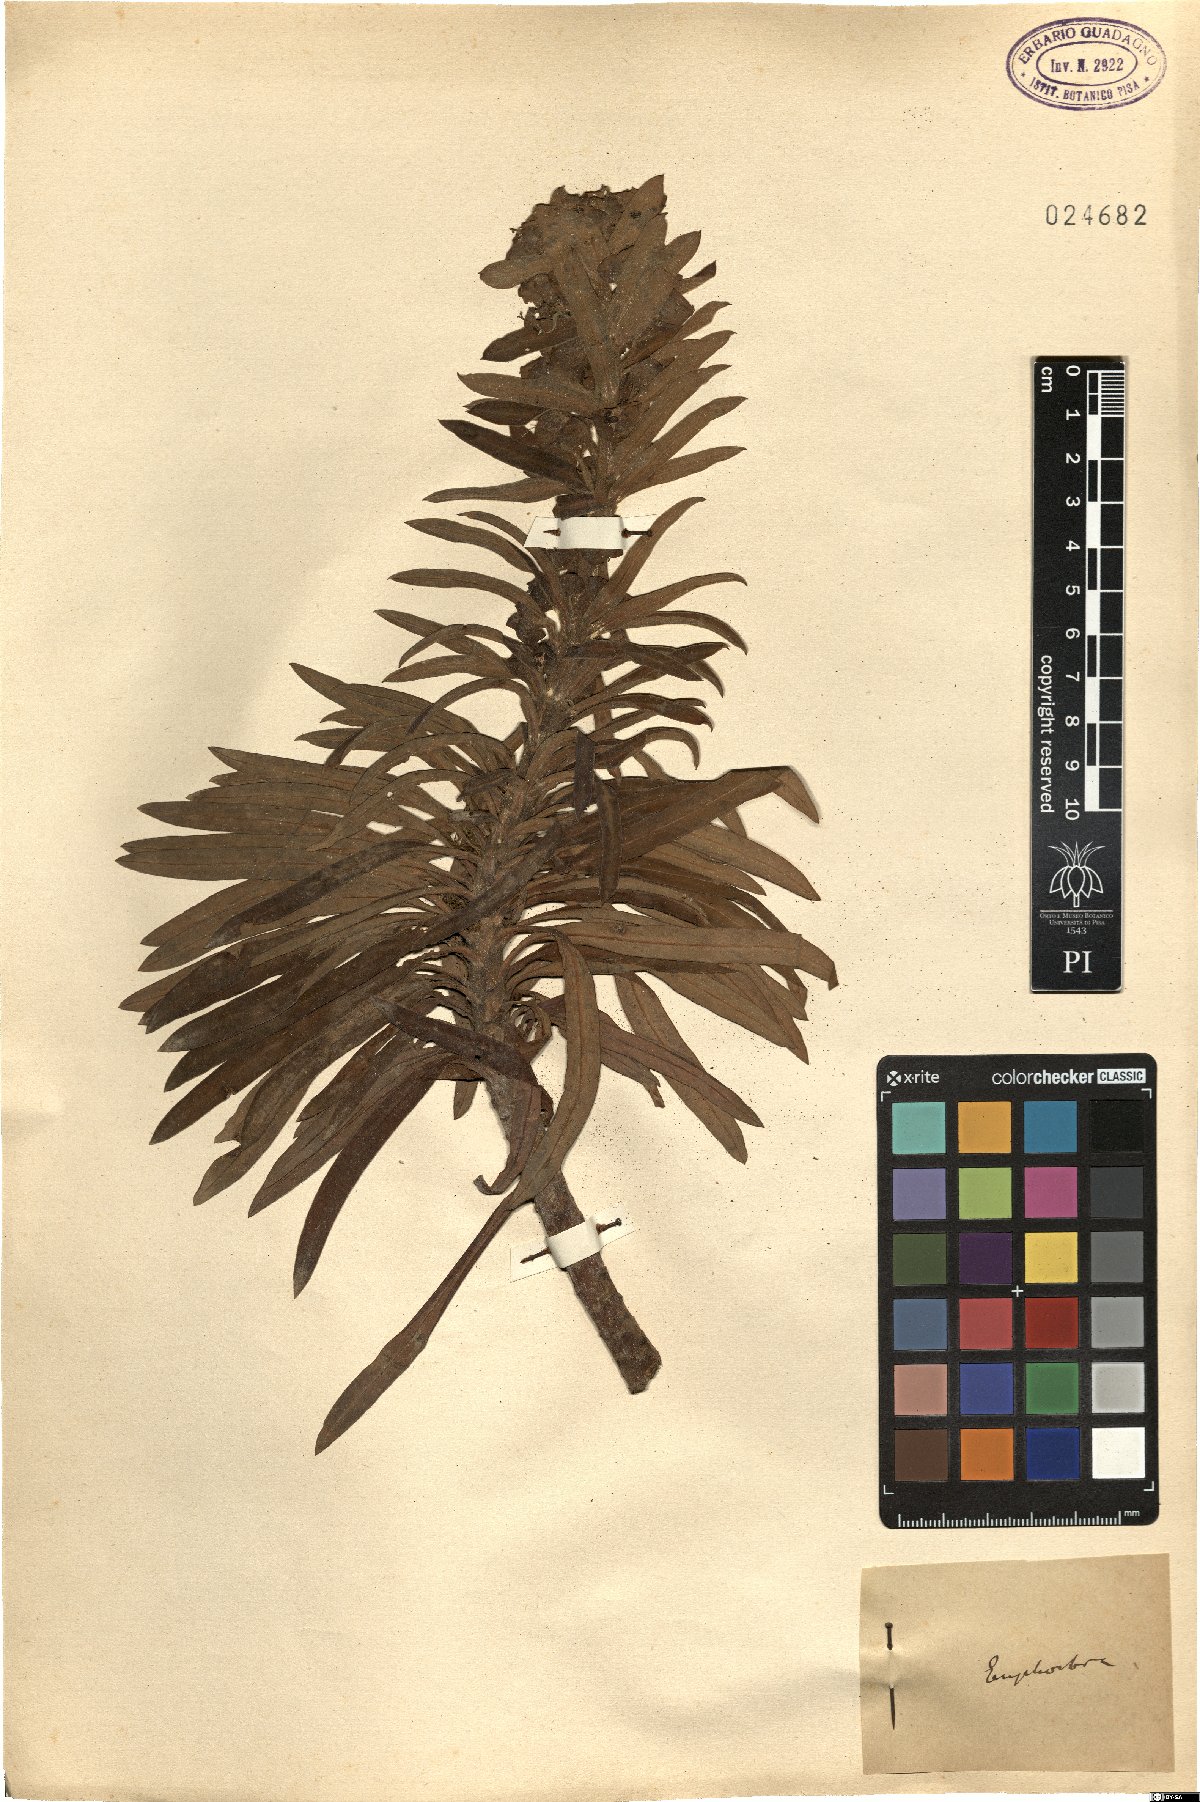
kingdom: Plantae
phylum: Tracheophyta
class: Magnoliopsida
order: Malpighiales
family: Euphorbiaceae
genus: Euphorbia
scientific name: Euphorbia
